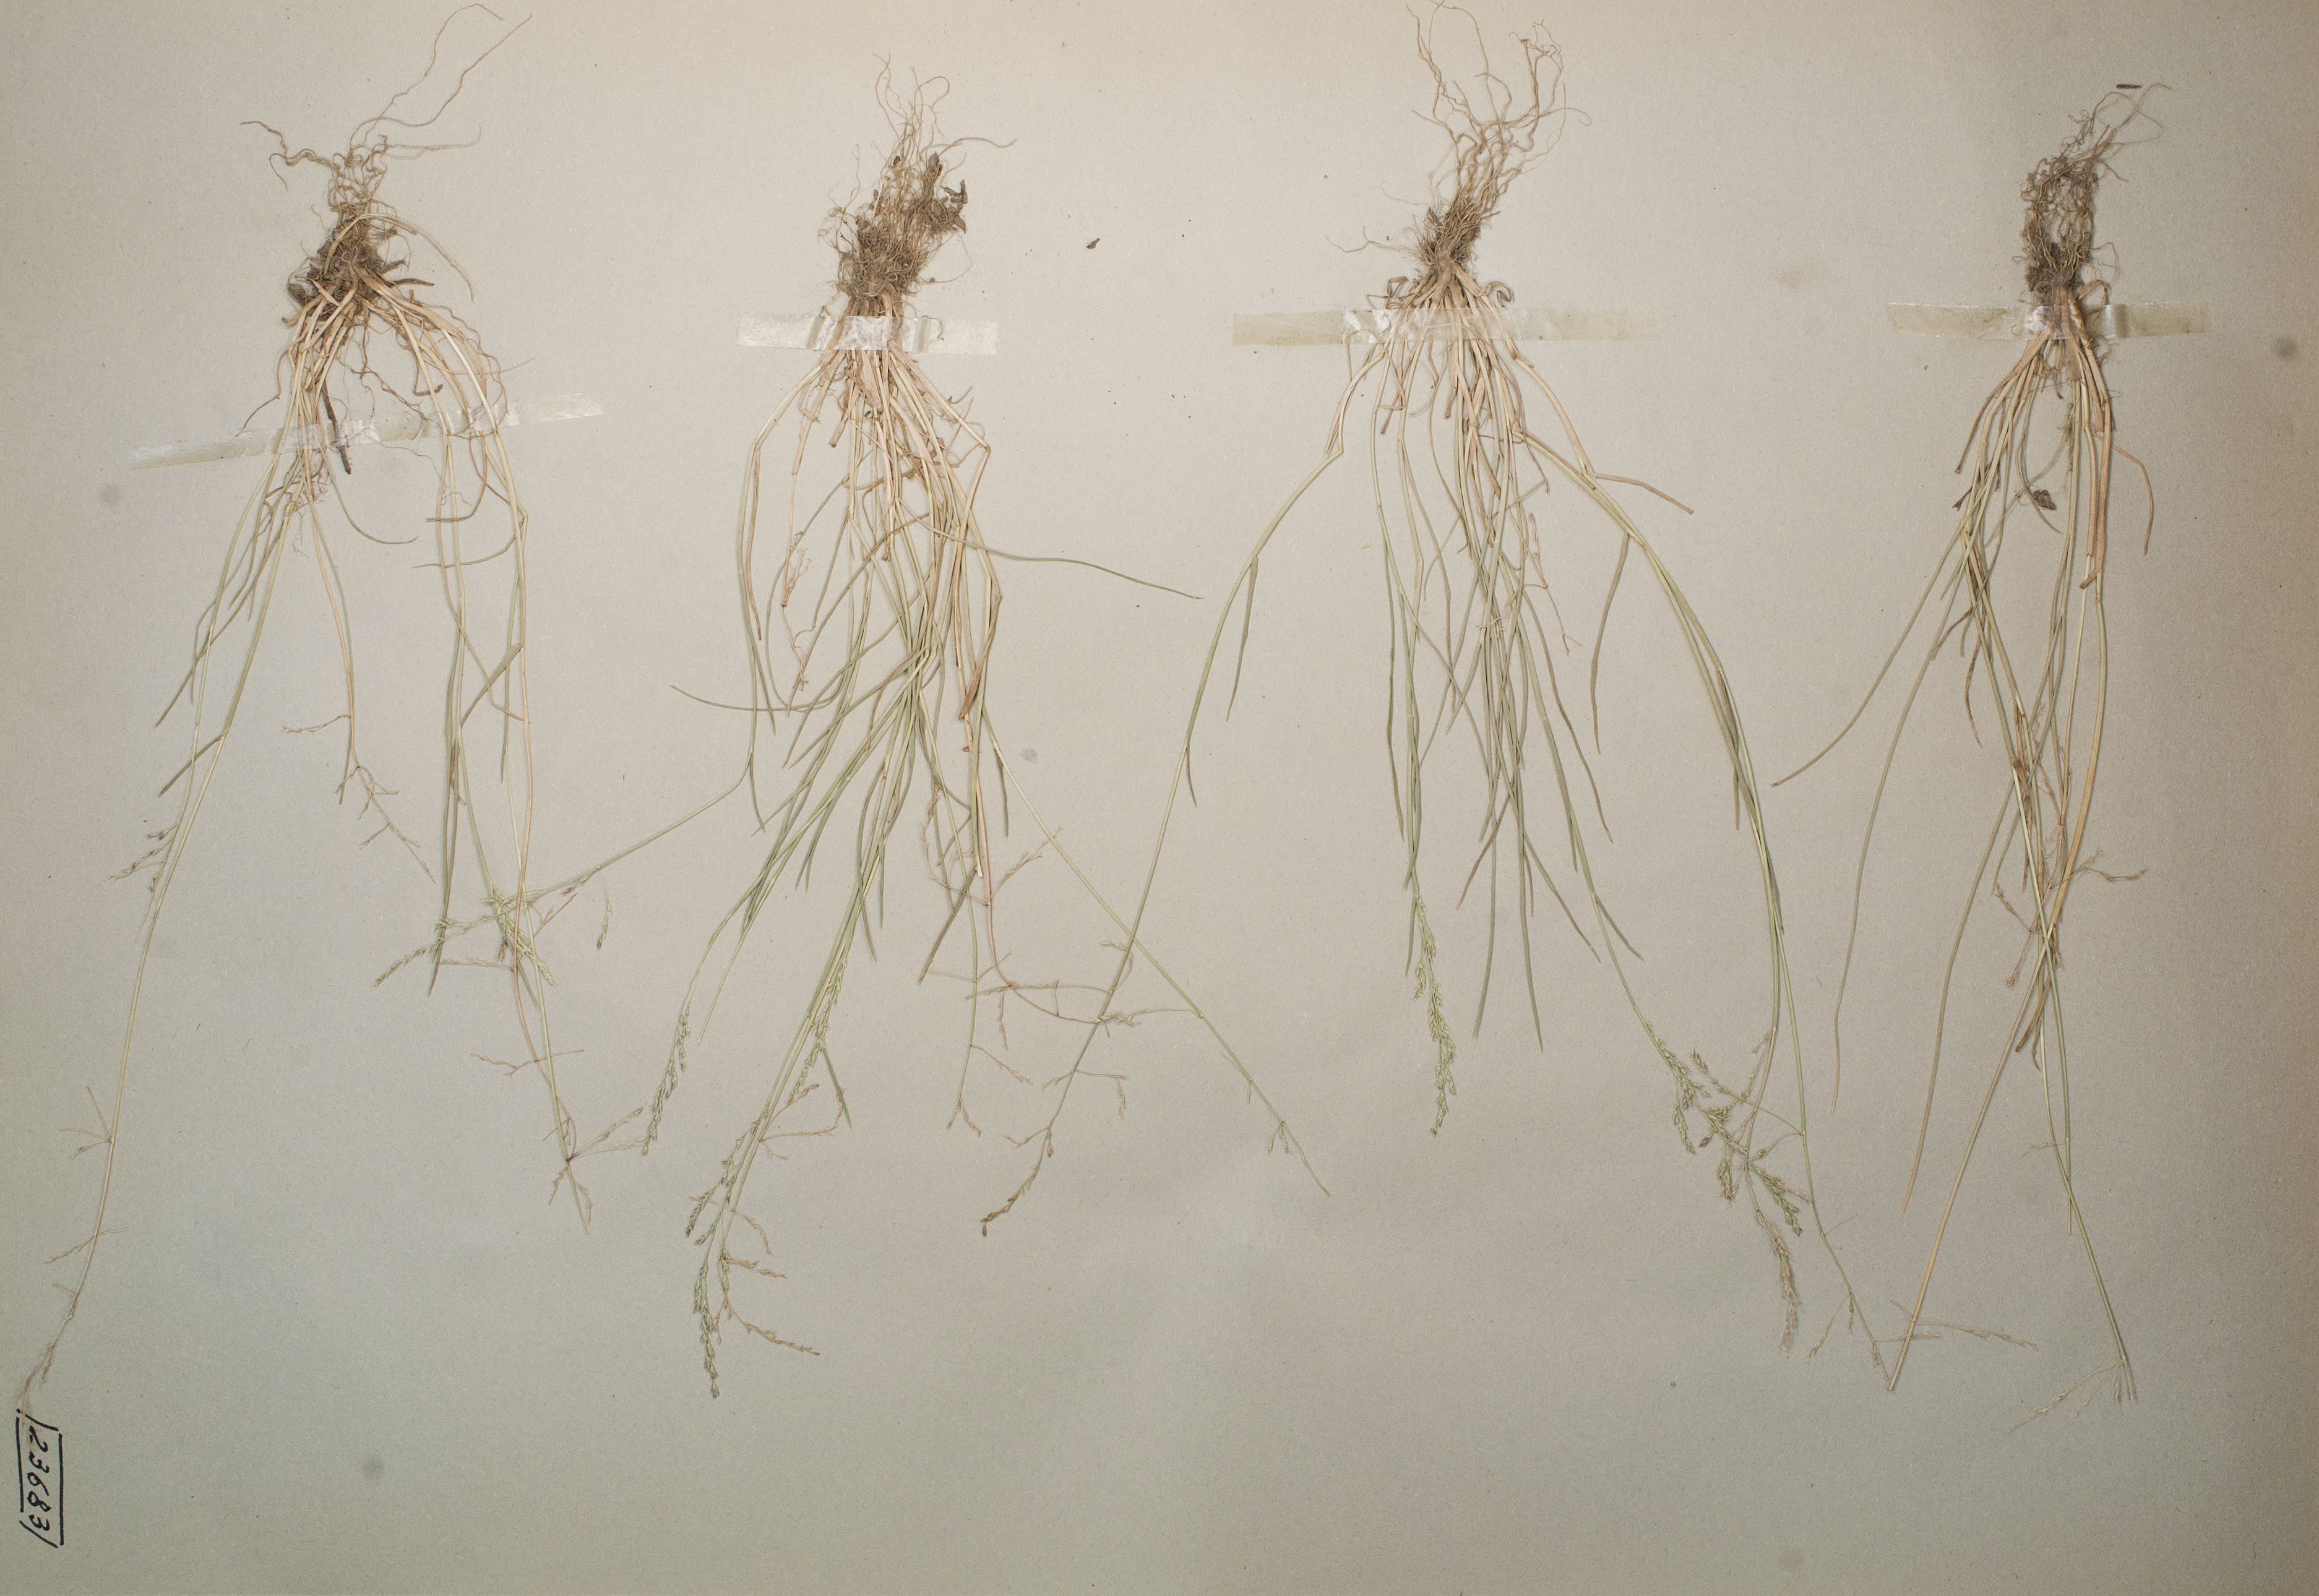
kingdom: Plantae
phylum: Tracheophyta
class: Liliopsida
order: Poales
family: Poaceae
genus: Puccinellia
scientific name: Puccinellia distans
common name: Weeping alkaligrass
